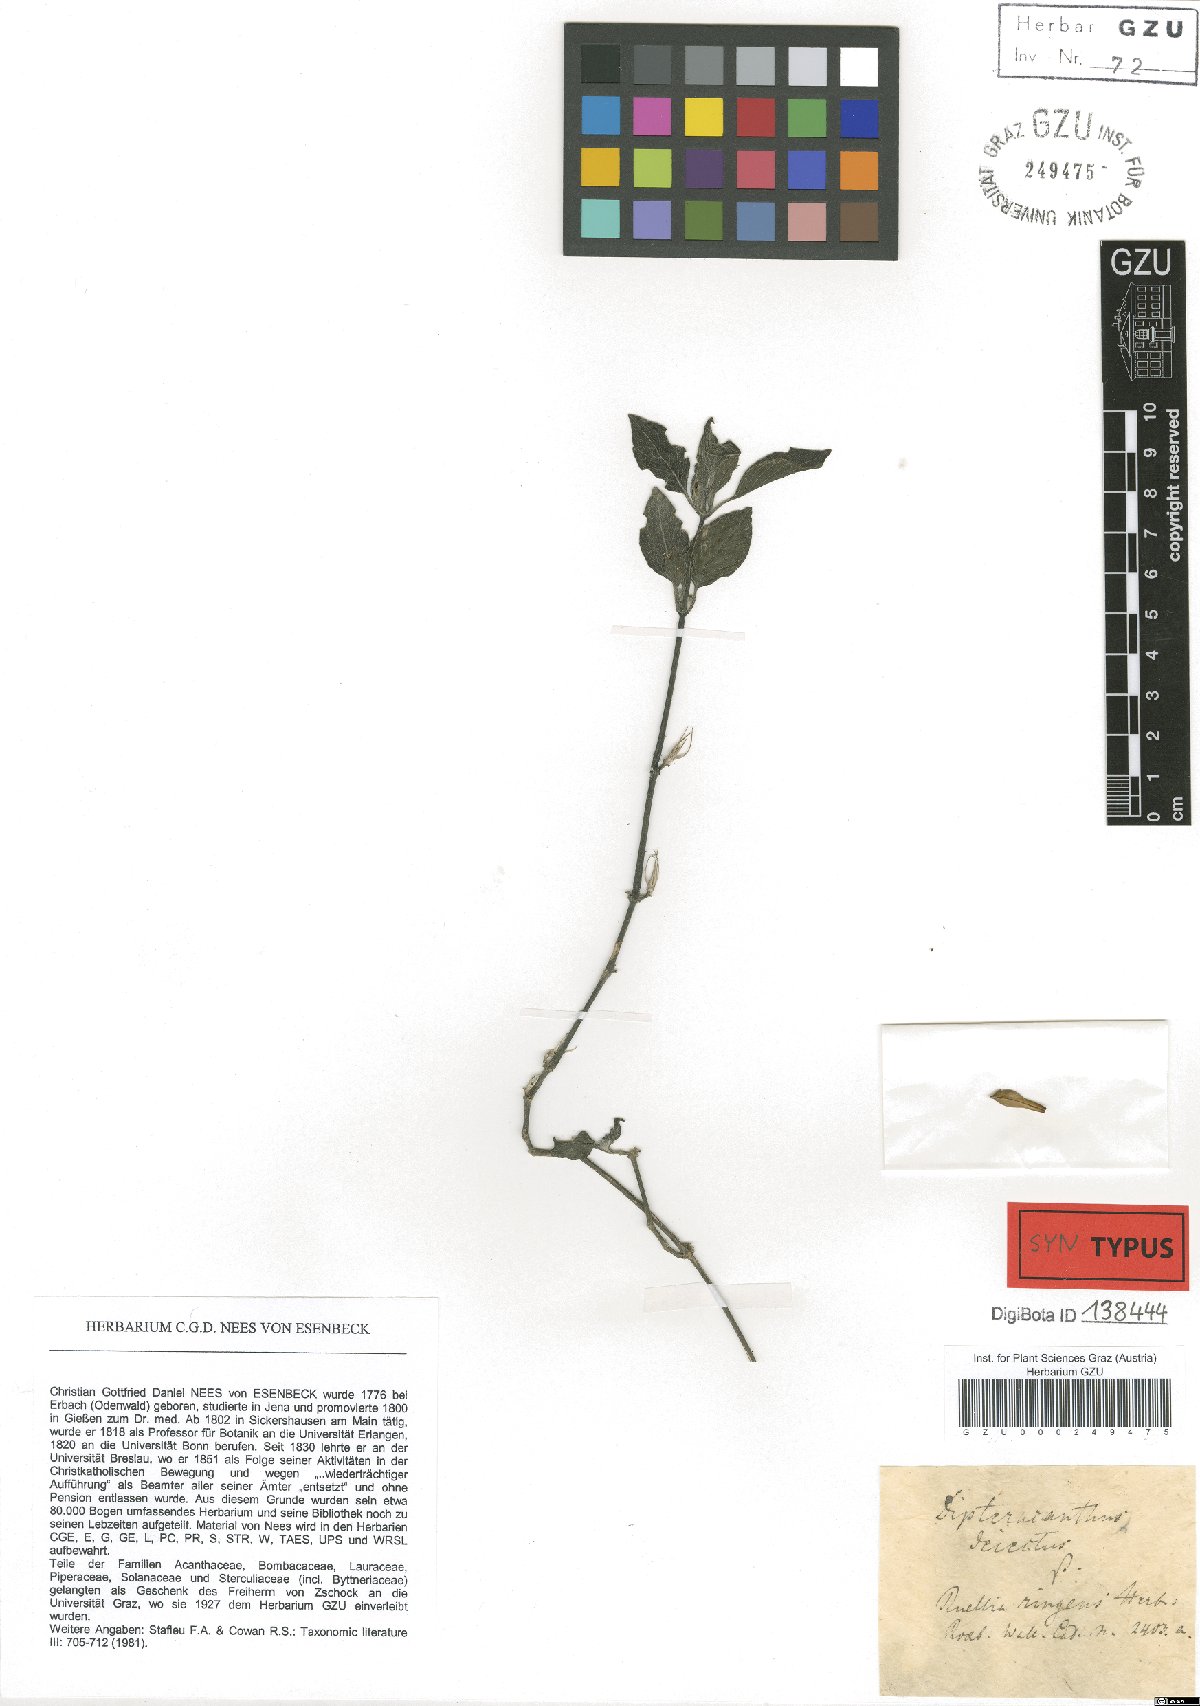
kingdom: Plantae
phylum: Tracheophyta
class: Magnoliopsida
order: Lamiales
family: Acanthaceae
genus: Ruellia
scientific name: Ruellia prostrata
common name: Prostrate wild petunia
